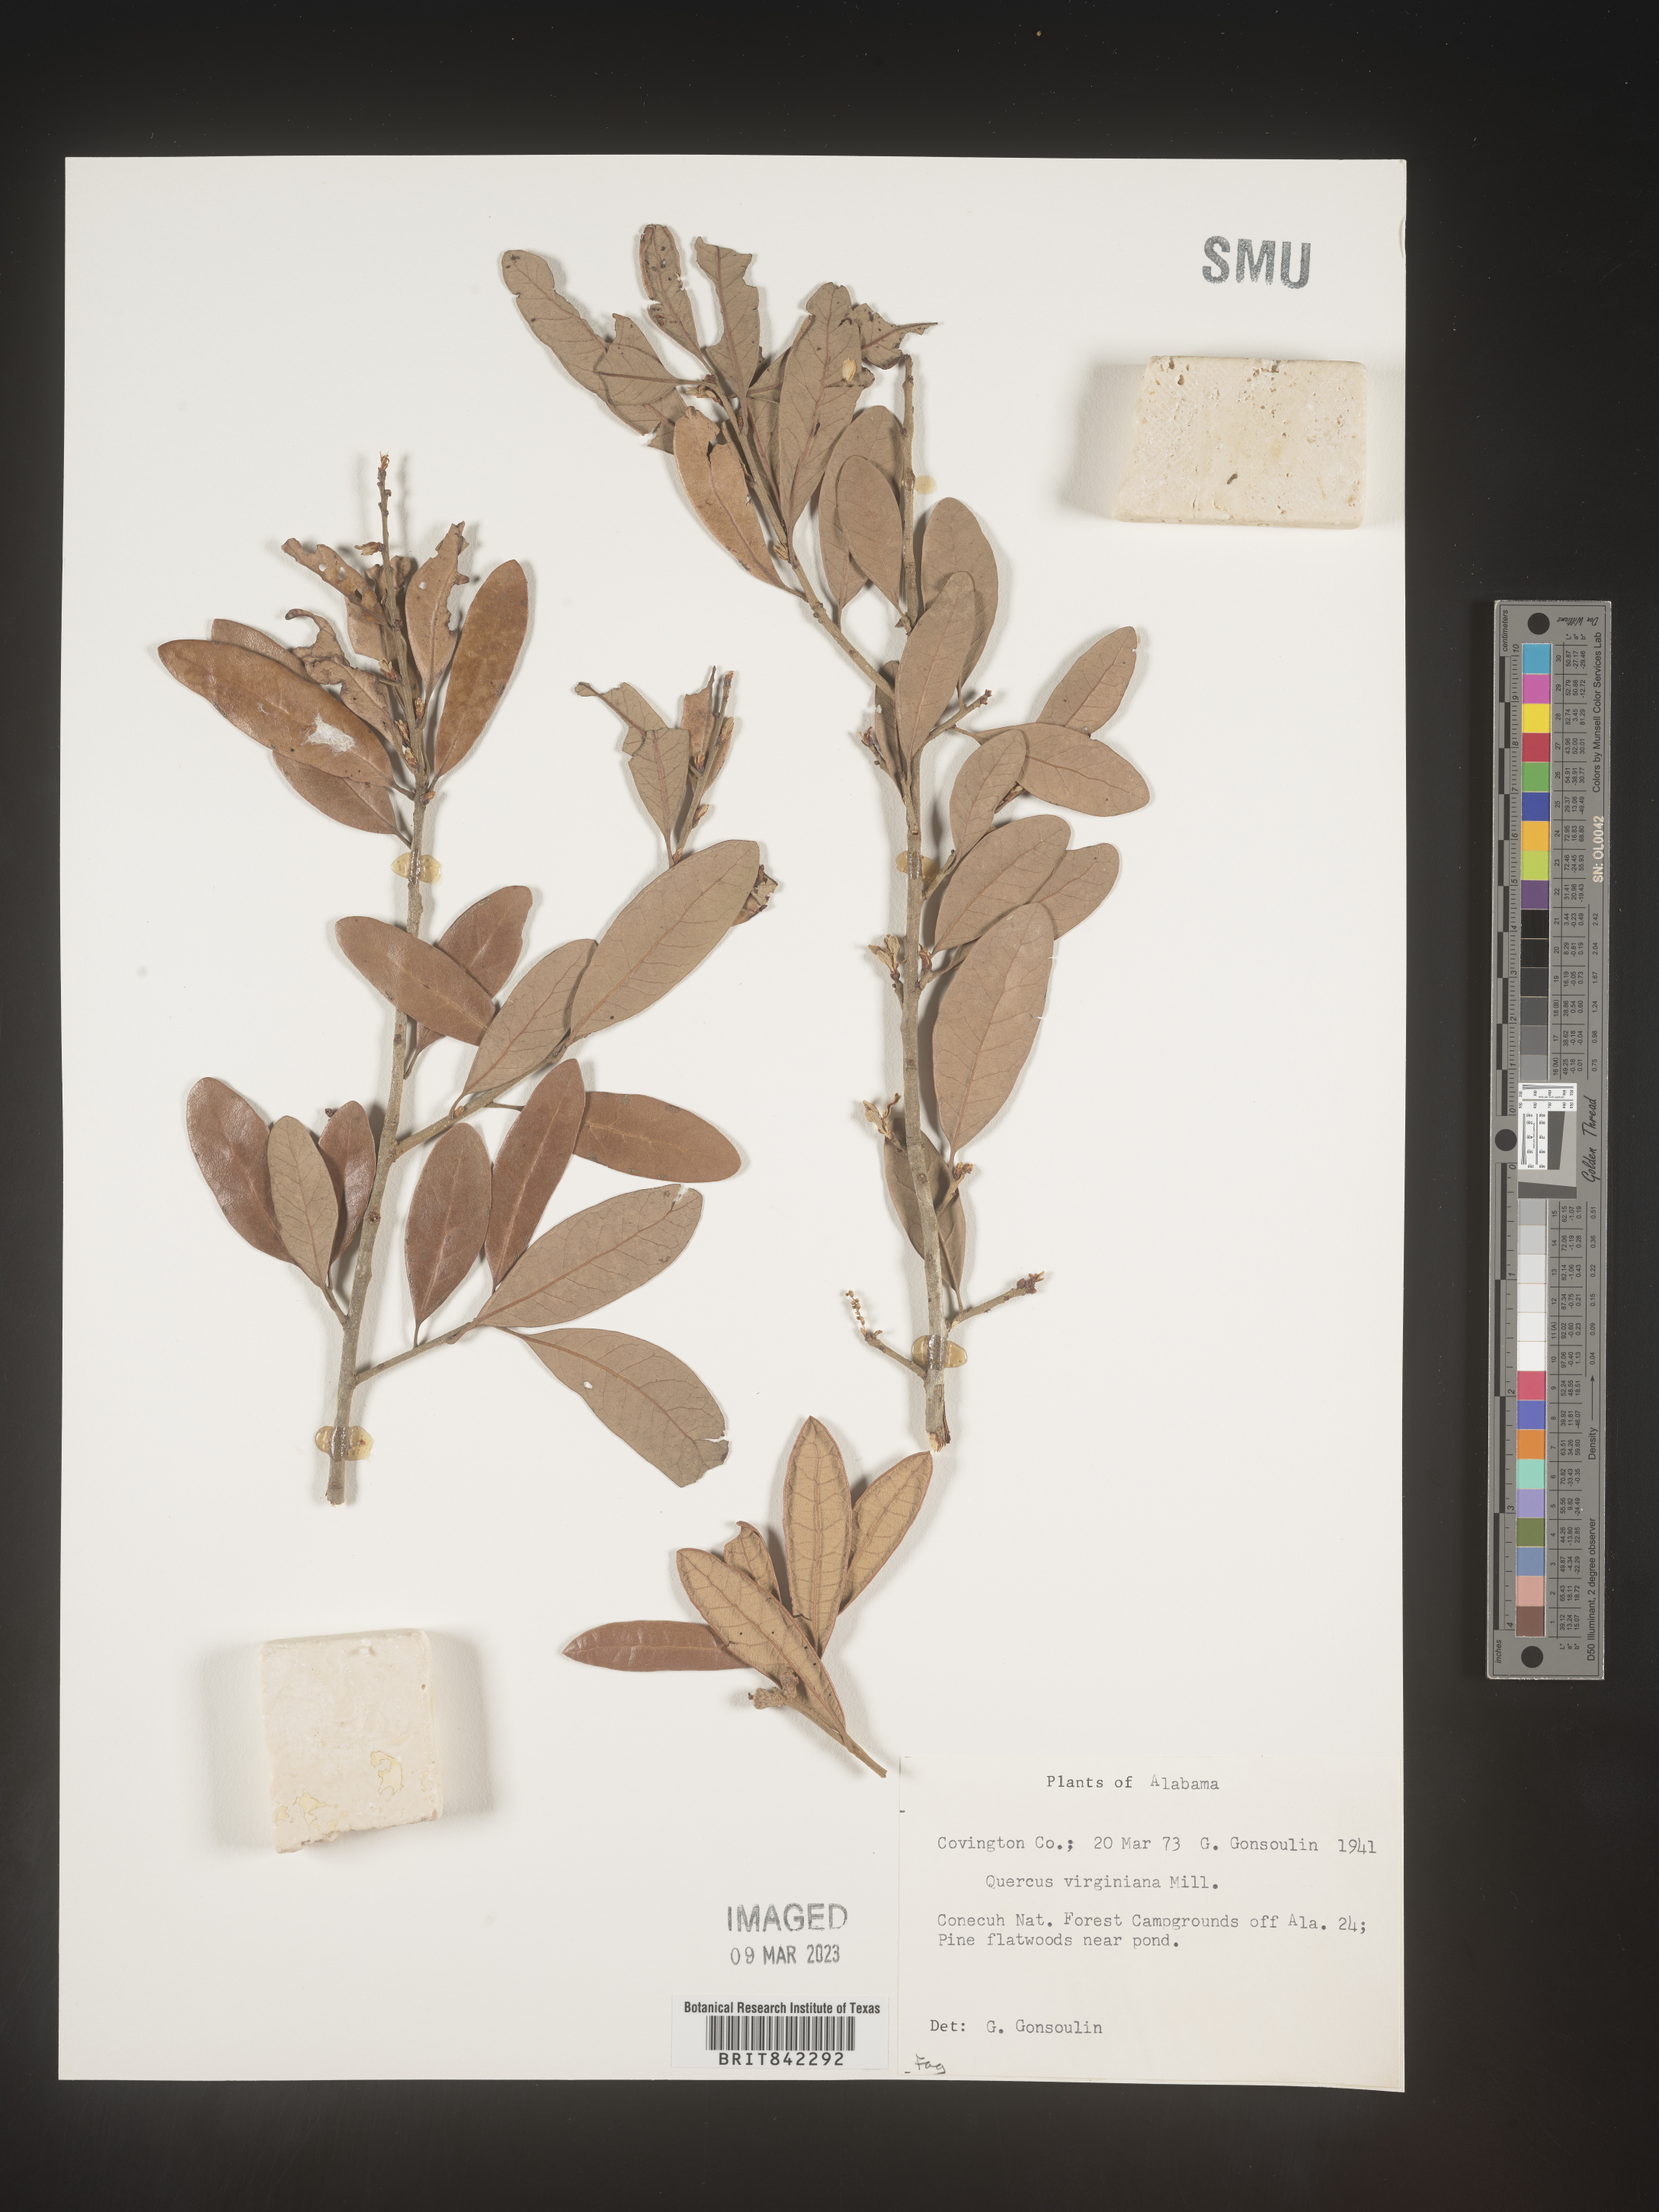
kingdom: Plantae
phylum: Tracheophyta
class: Magnoliopsida
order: Fagales
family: Fagaceae
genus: Quercus
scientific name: Quercus virginiana
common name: Southern live oak
